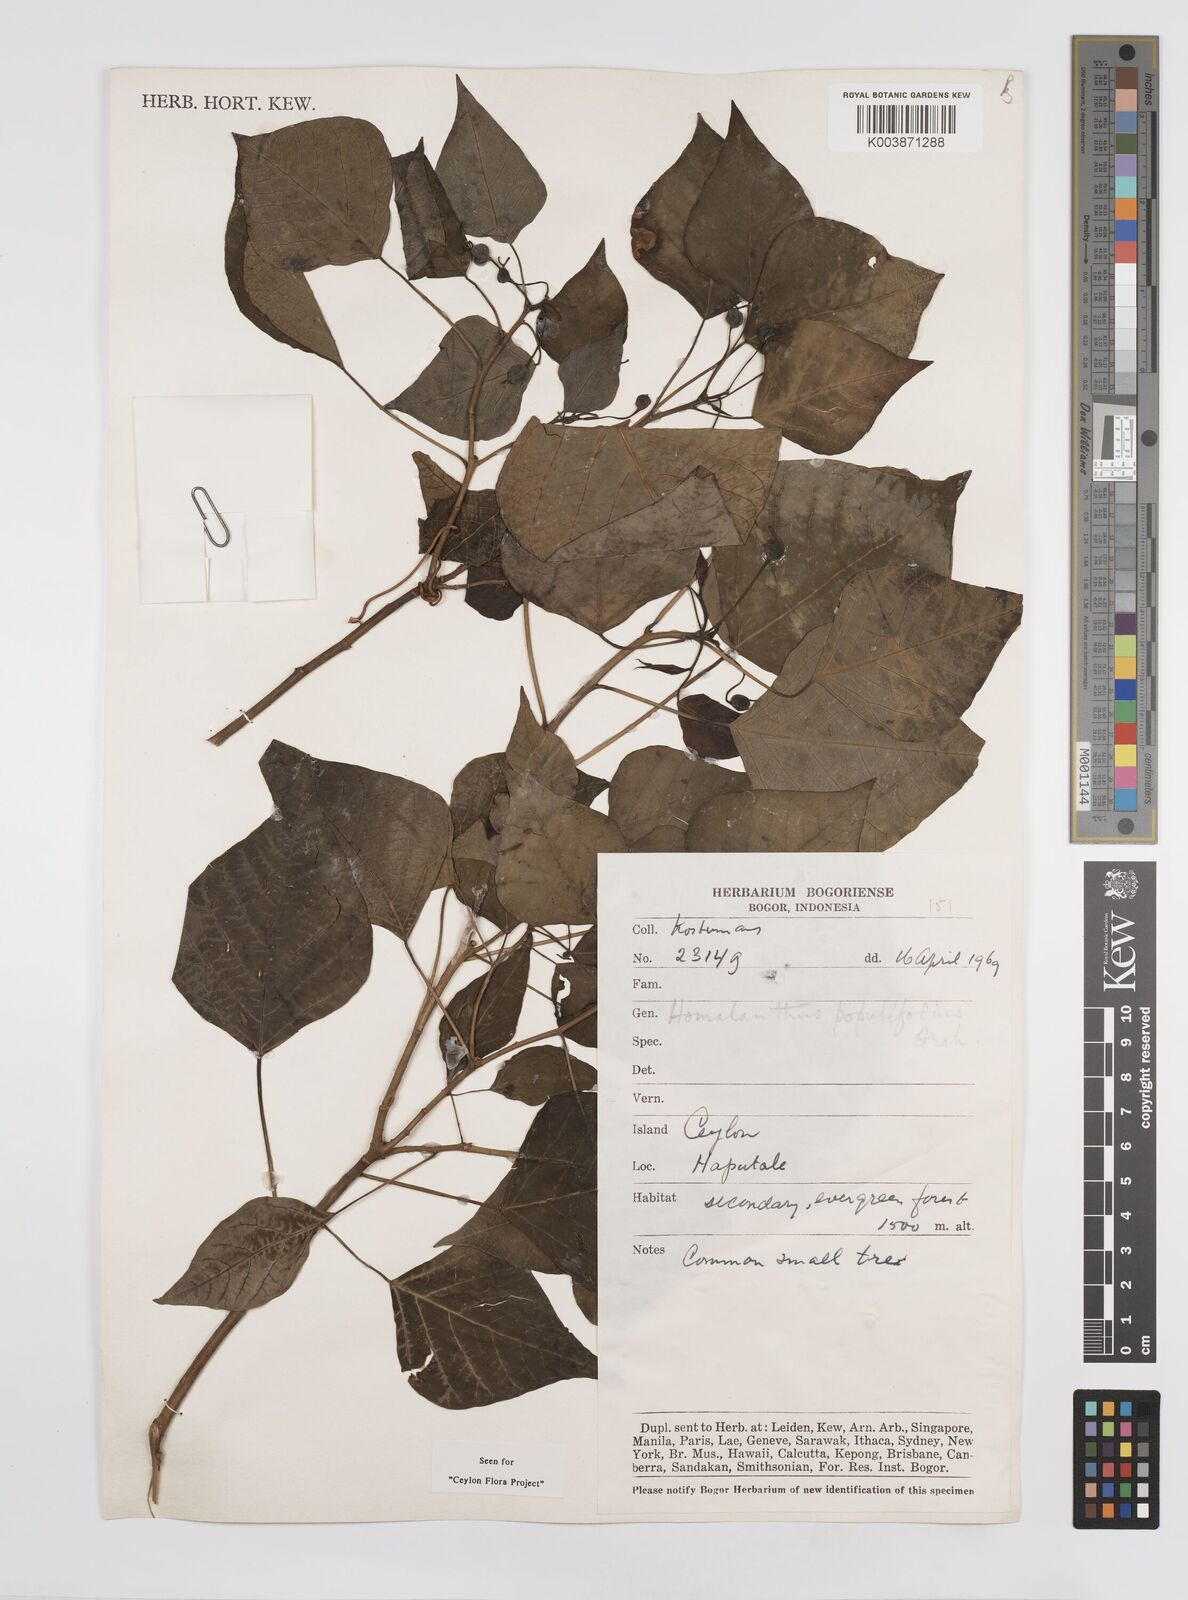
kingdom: Plantae
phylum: Tracheophyta
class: Magnoliopsida
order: Malpighiales
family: Euphorbiaceae
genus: Homalanthus
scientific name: Homalanthus populneus
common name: Spurge
